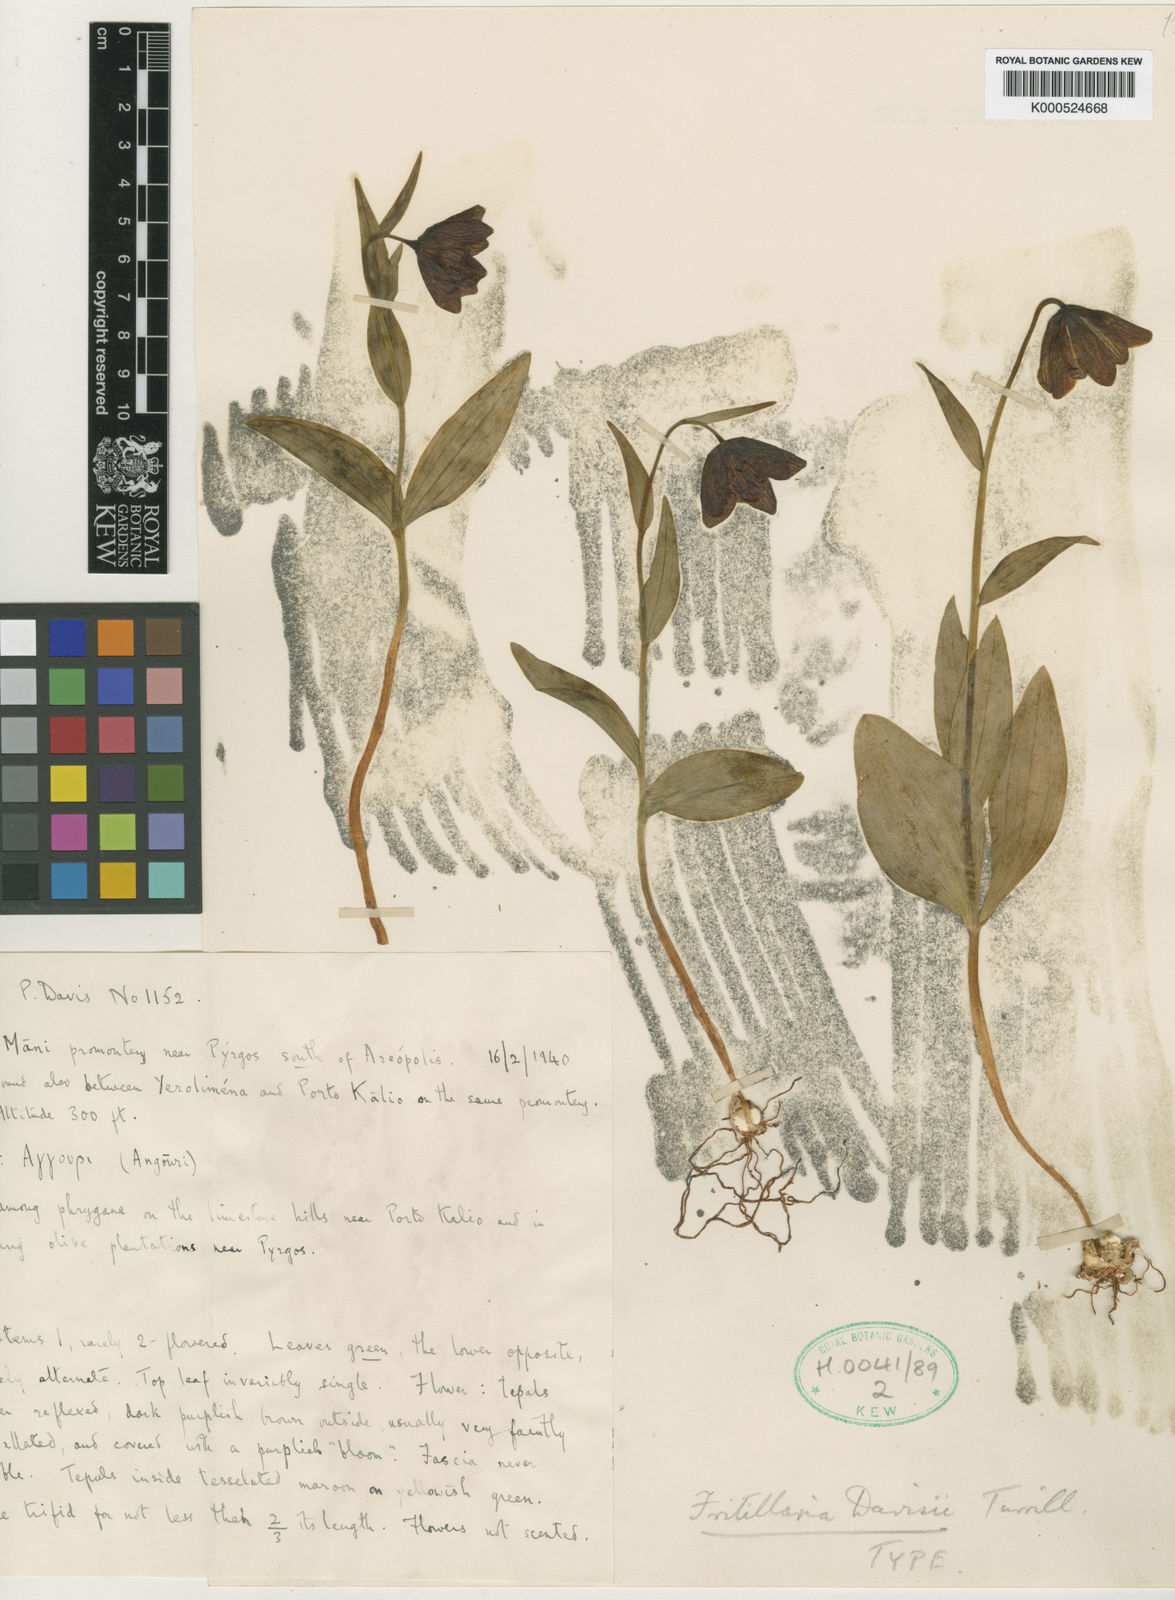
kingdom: Plantae
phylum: Tracheophyta
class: Liliopsida
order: Liliales
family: Liliaceae
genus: Fritillaria
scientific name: Fritillaria davisii
